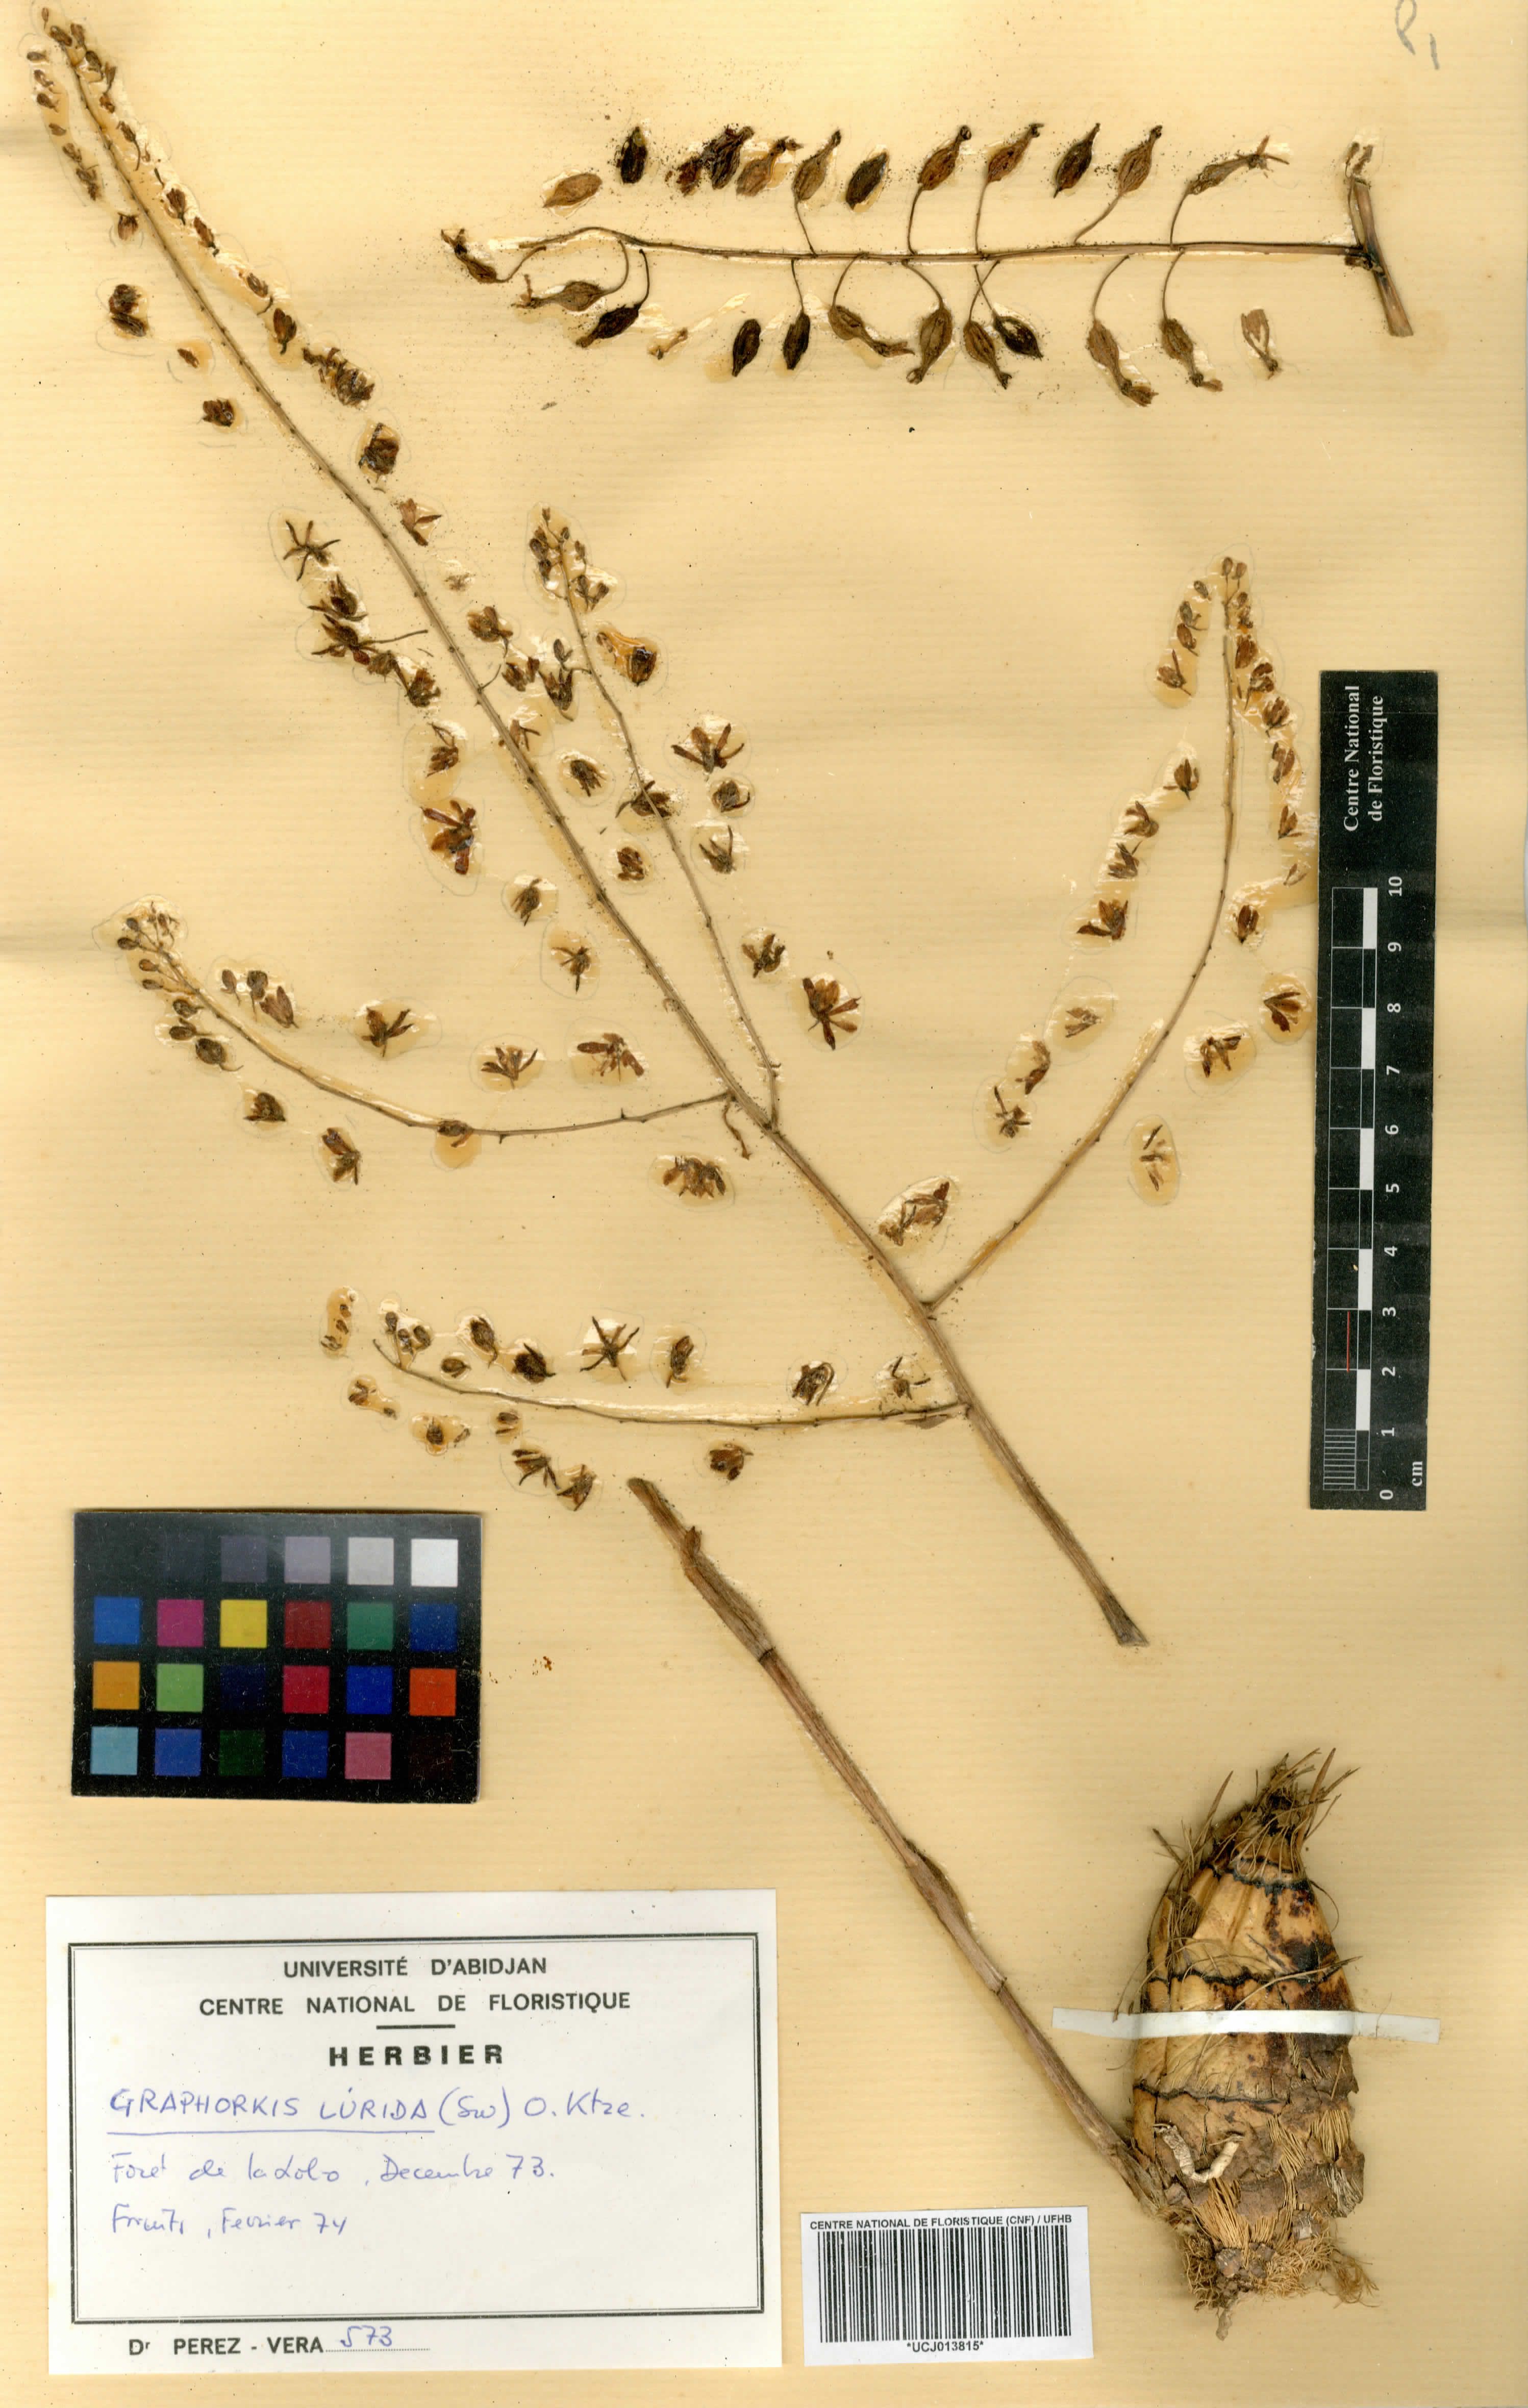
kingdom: Plantae
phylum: Tracheophyta
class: Liliopsida
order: Asparagales
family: Orchidaceae
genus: Graphorkis
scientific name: Graphorkis lurida
